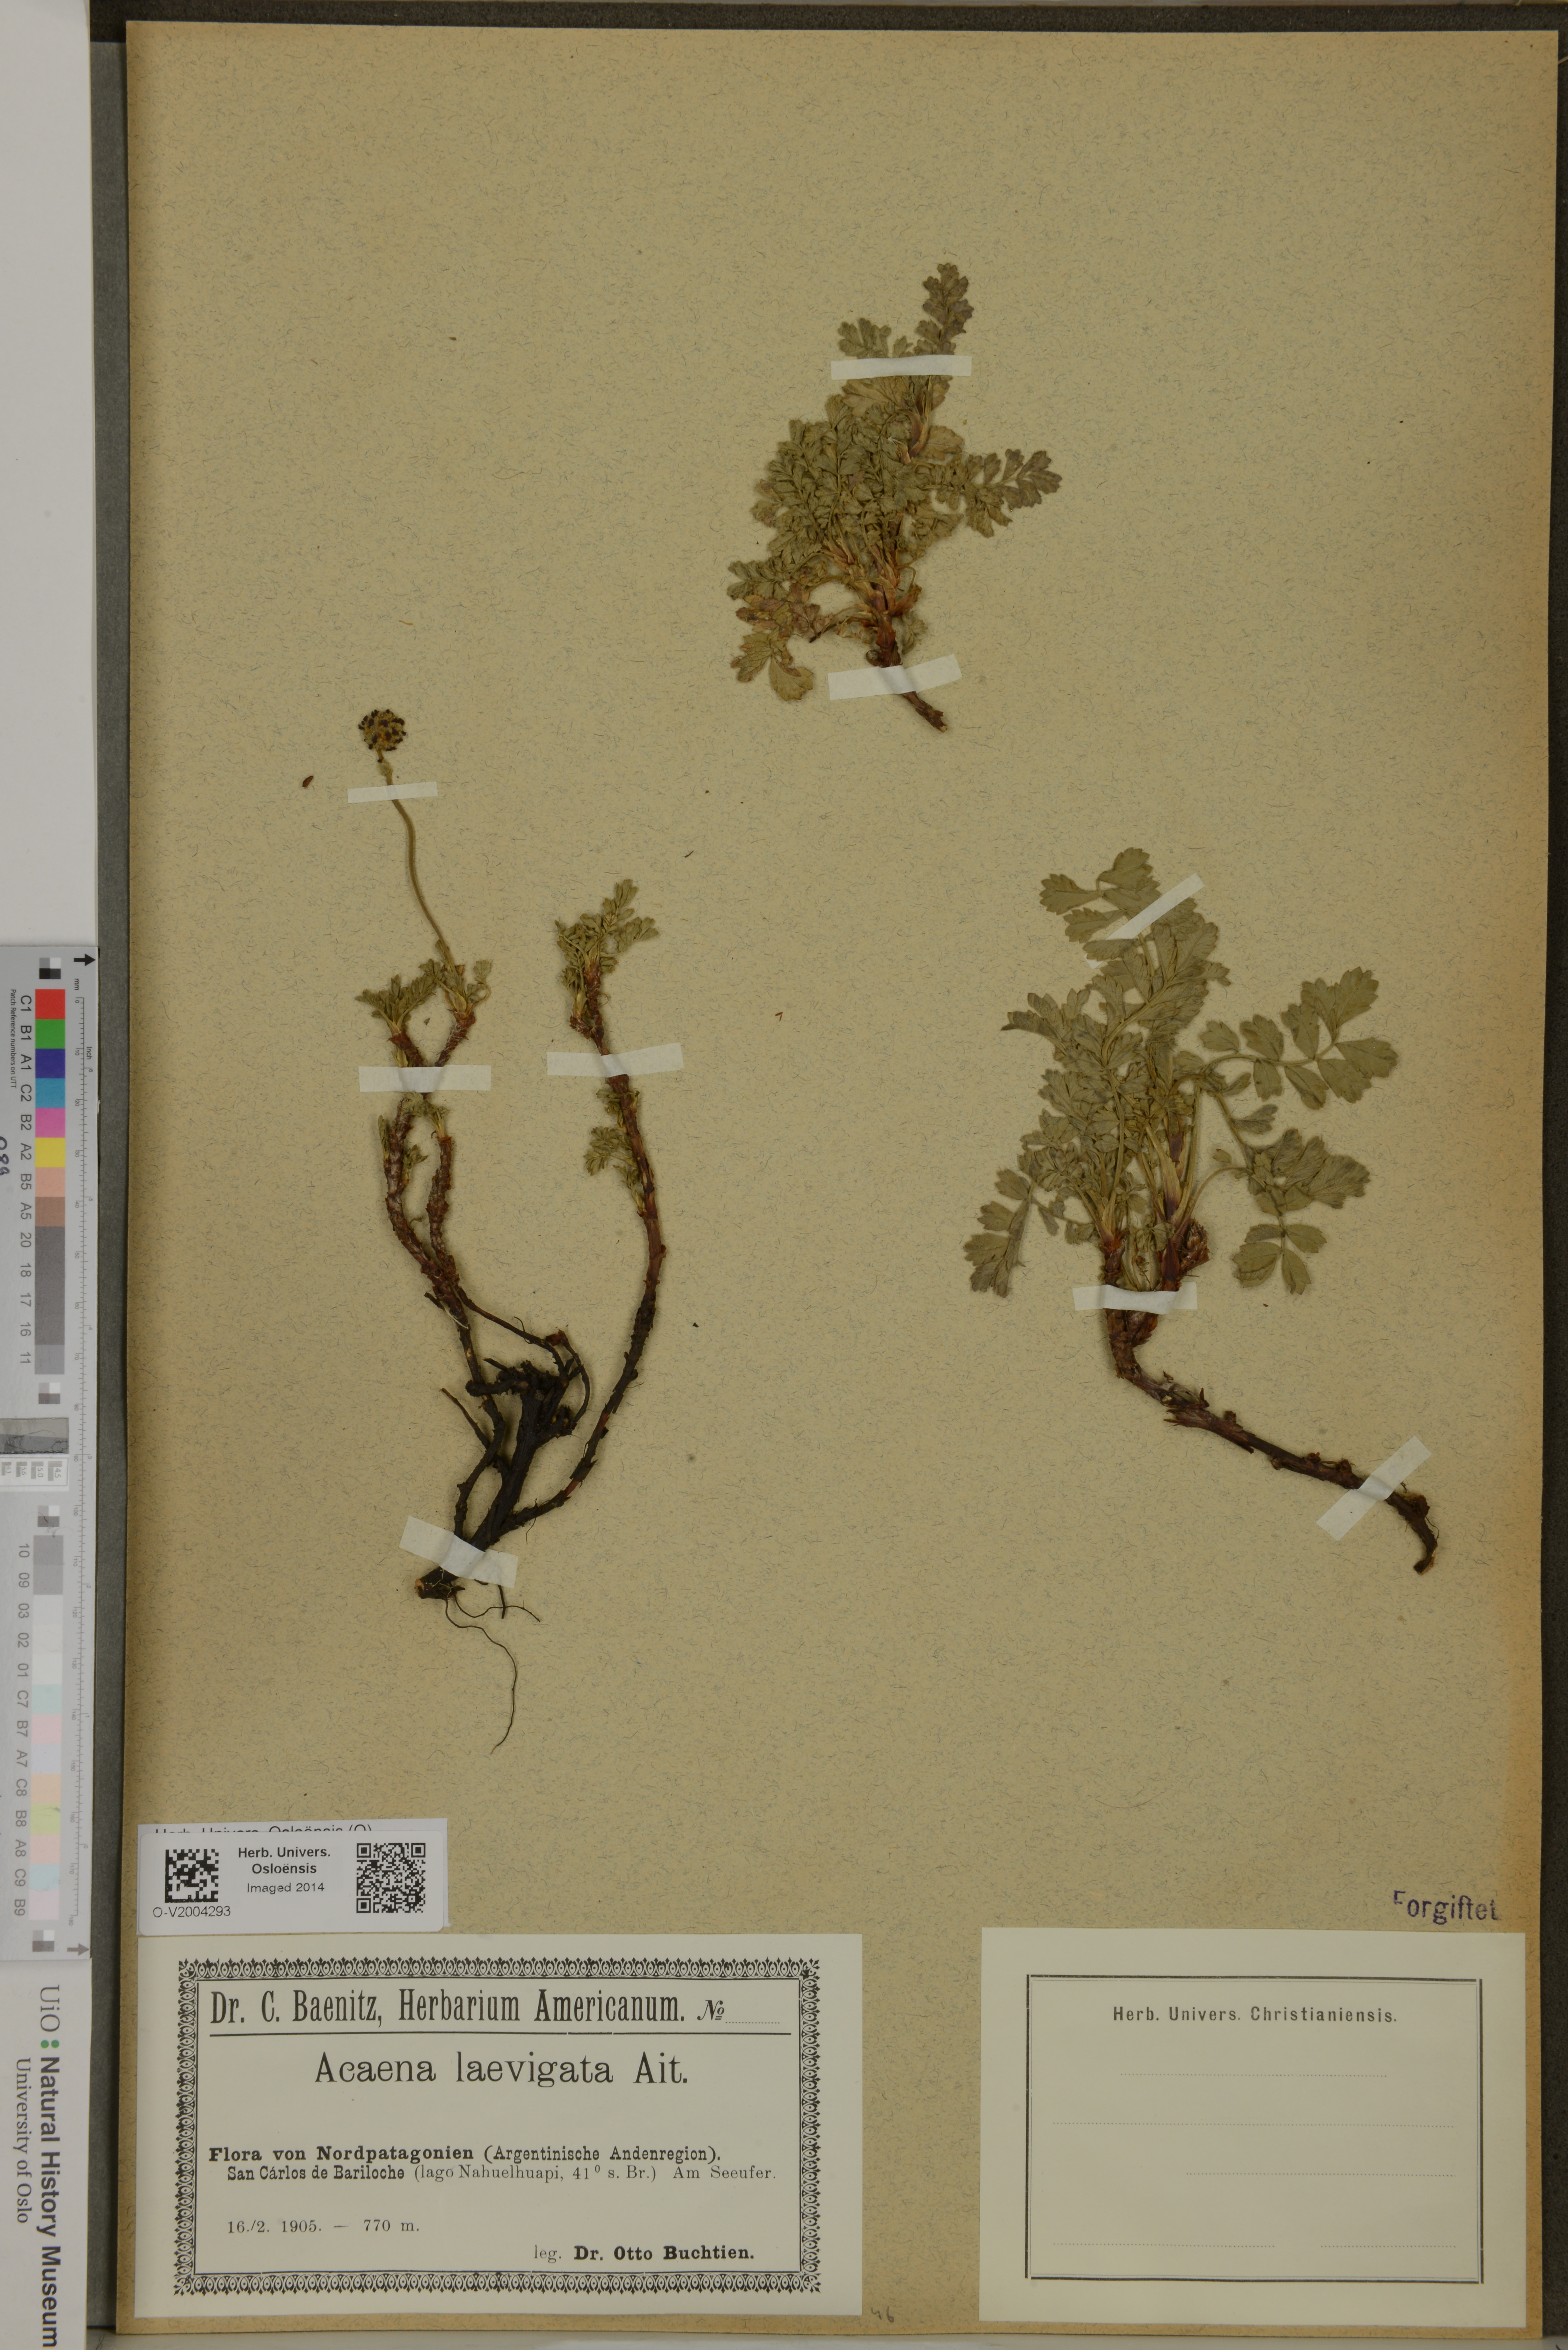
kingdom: Plantae
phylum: Tracheophyta
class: Magnoliopsida
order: Rosales
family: Rosaceae
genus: Acaena
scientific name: Acaena magellanica
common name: New zealand burr
